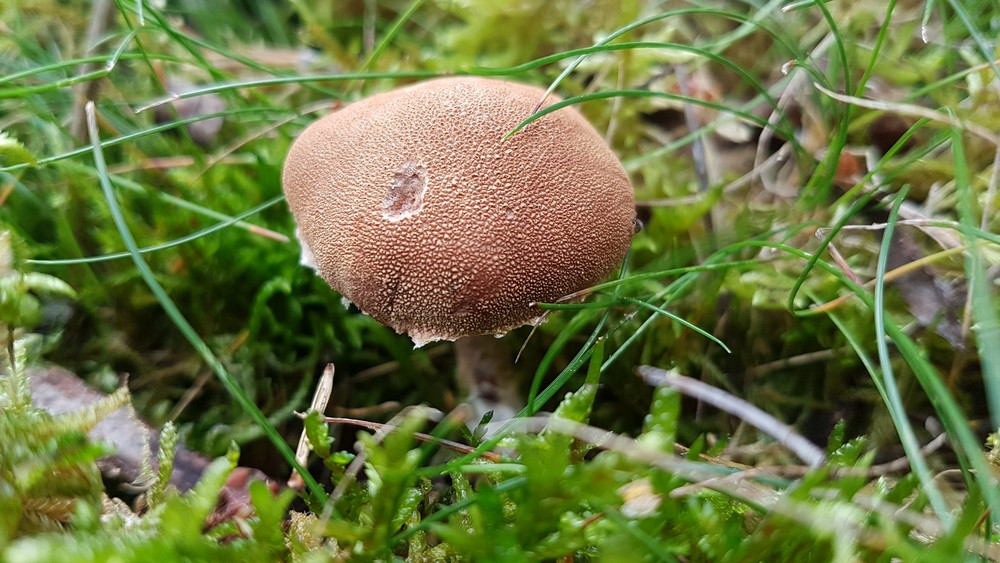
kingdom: Fungi
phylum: Basidiomycota
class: Agaricomycetes
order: Agaricales
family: Agaricaceae
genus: Cystodermella
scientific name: Cystodermella granulosa
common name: kliddet grynhat
